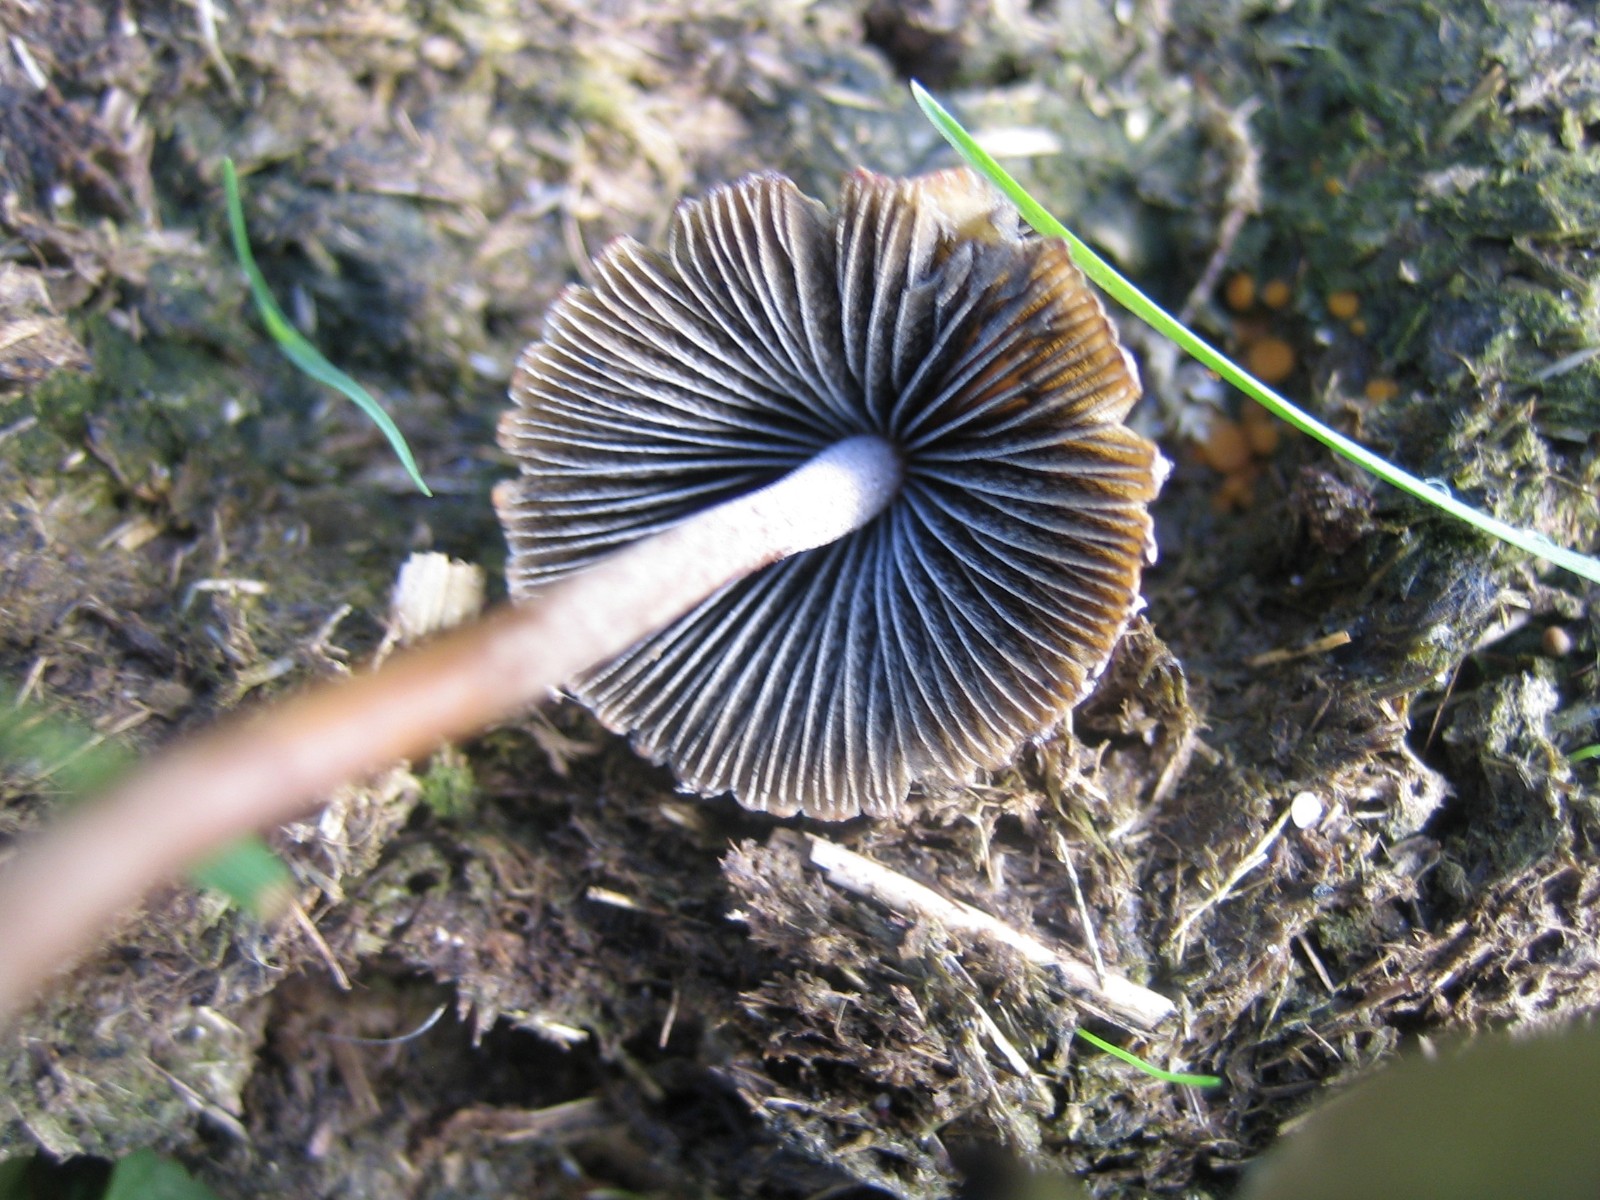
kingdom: Fungi
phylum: Basidiomycota
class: Agaricomycetes
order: Agaricales
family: Bolbitiaceae
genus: Panaeolus
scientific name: Panaeolus papilionaceus
